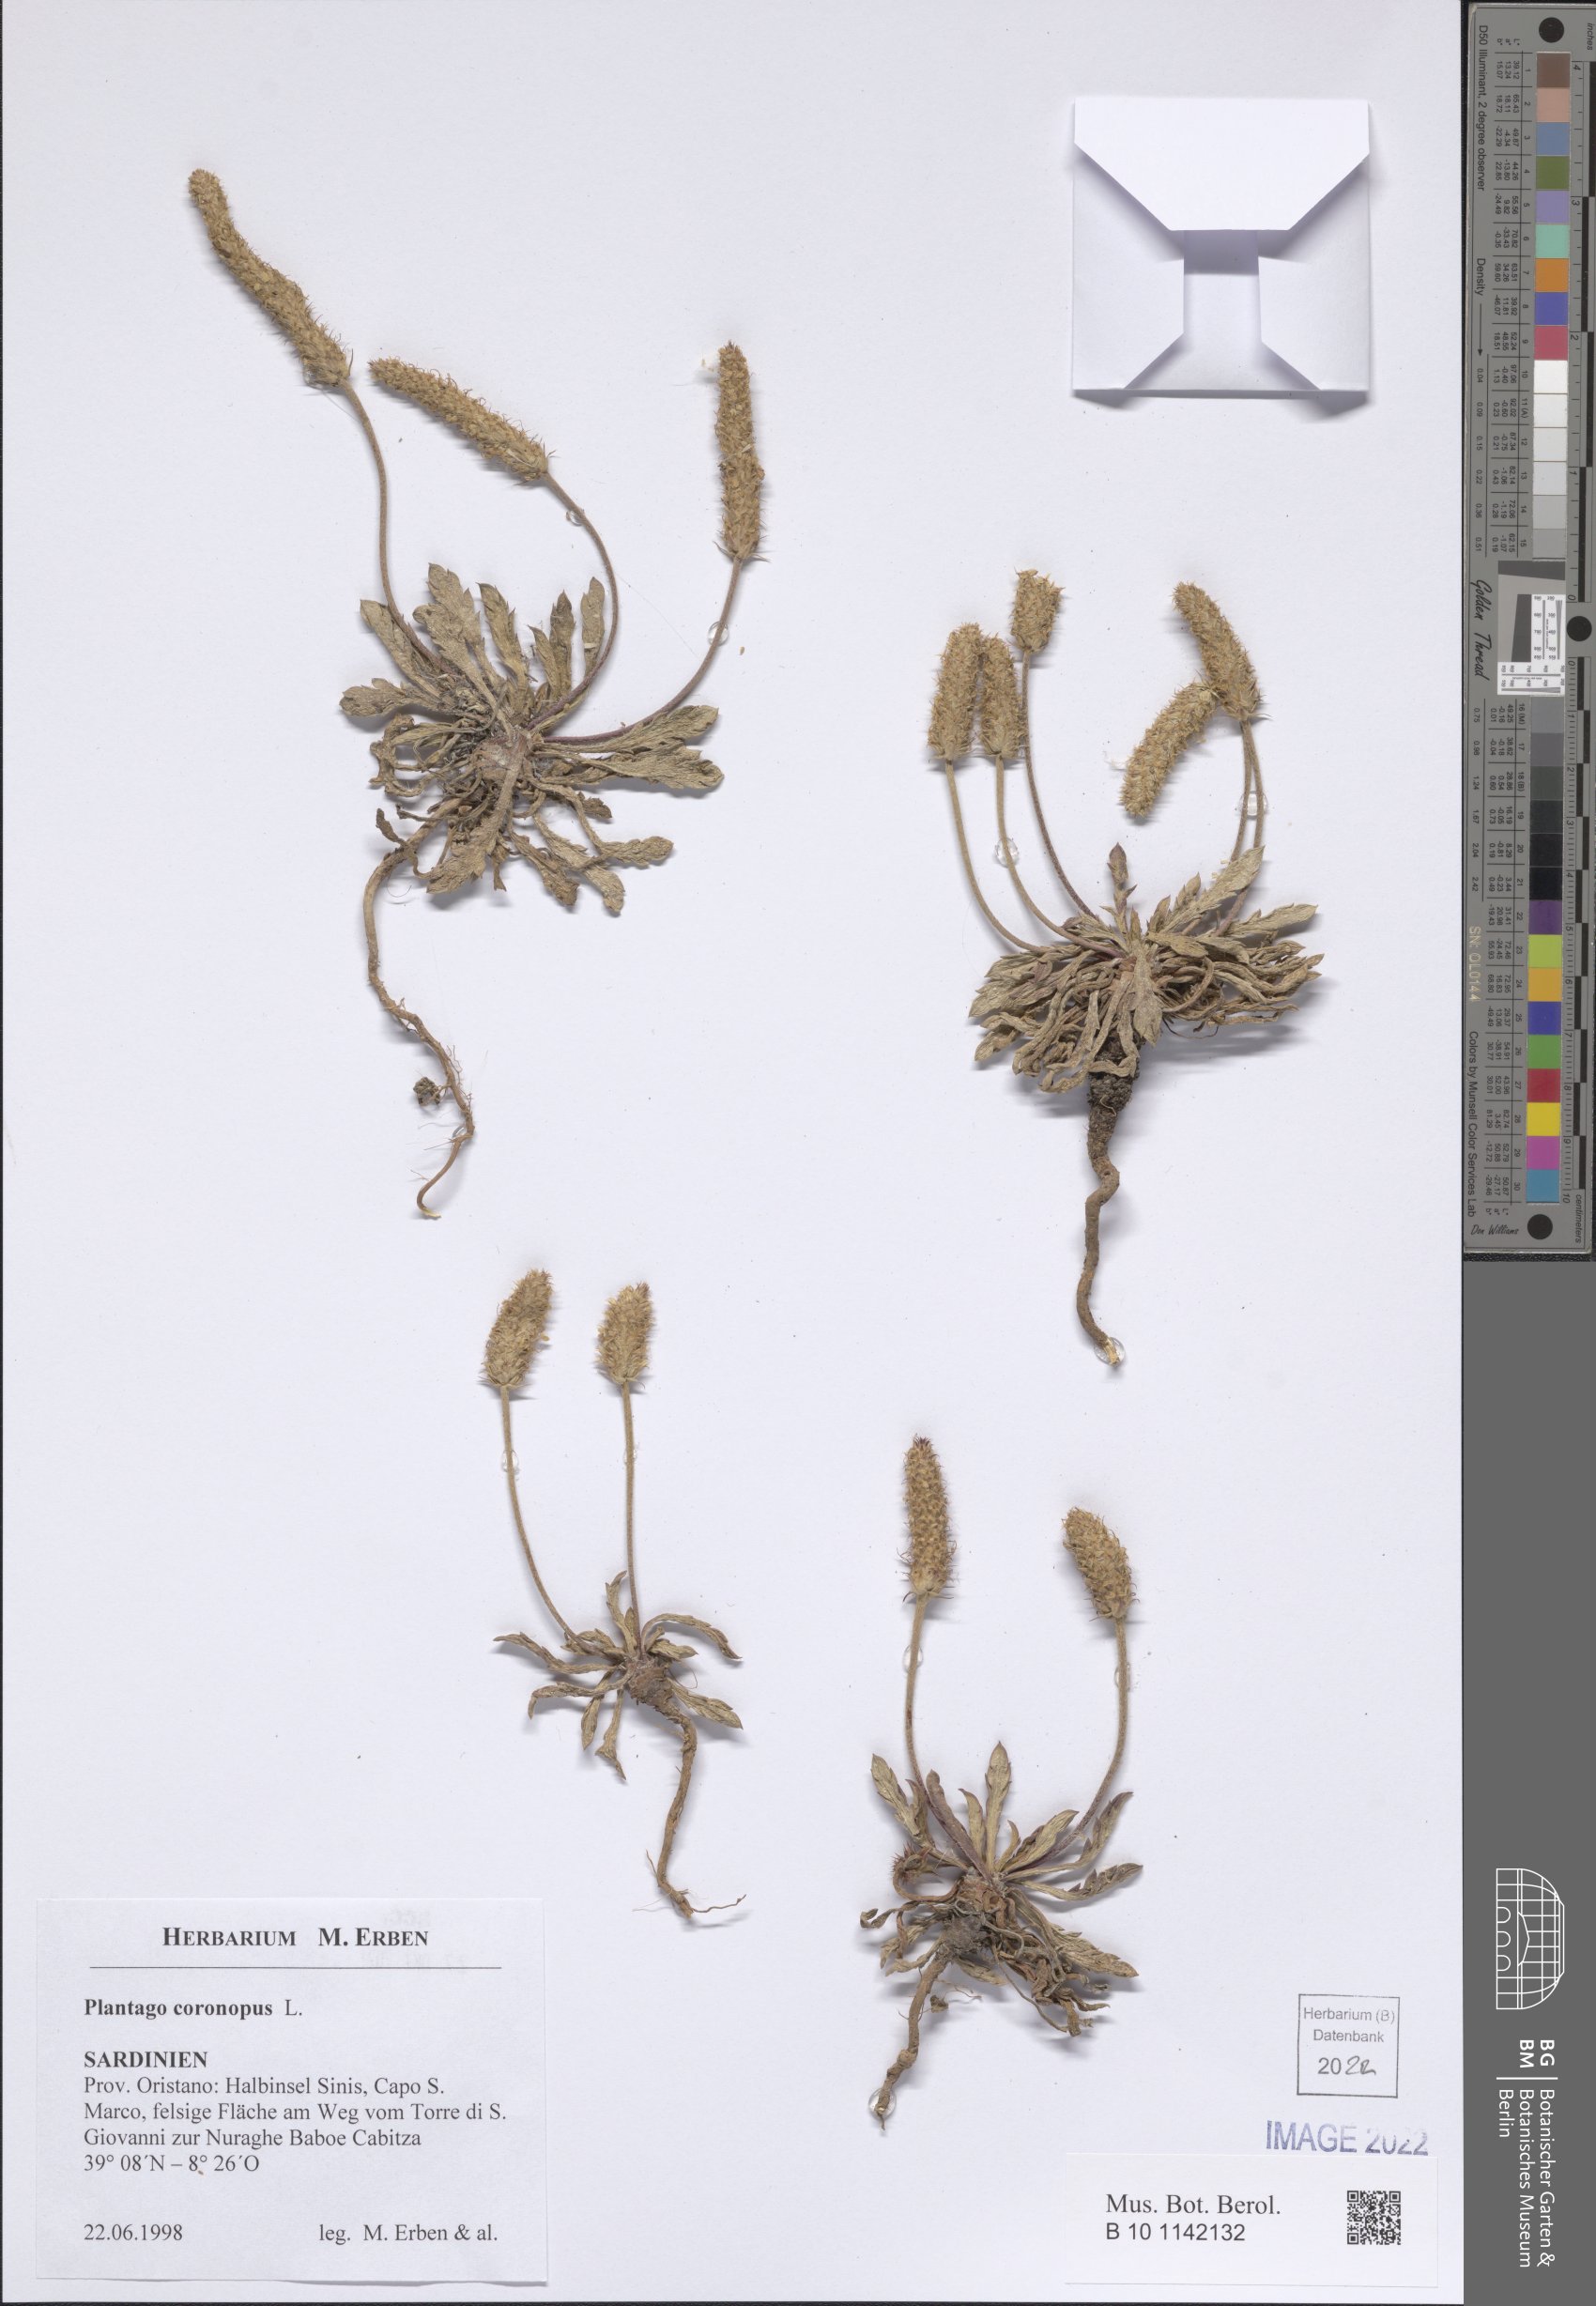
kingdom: Plantae
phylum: Tracheophyta
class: Magnoliopsida
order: Lamiales
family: Plantaginaceae
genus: Plantago
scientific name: Plantago coronopus
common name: Buck's-horn plantain
